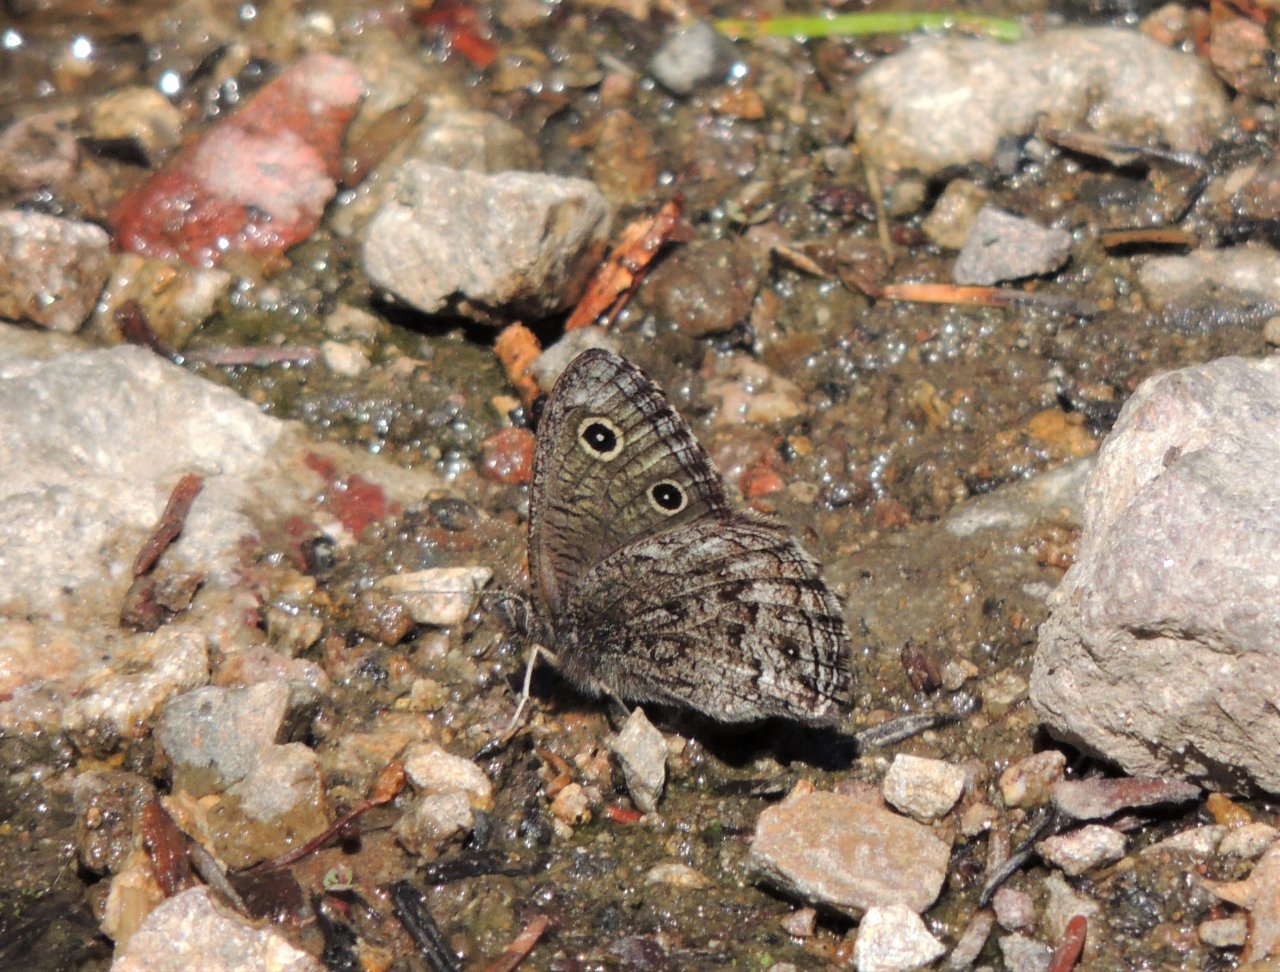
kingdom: Animalia
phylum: Arthropoda
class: Insecta
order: Lepidoptera
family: Nymphalidae
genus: Cercyonis
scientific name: Cercyonis oetus
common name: Small Wood-Nymph
